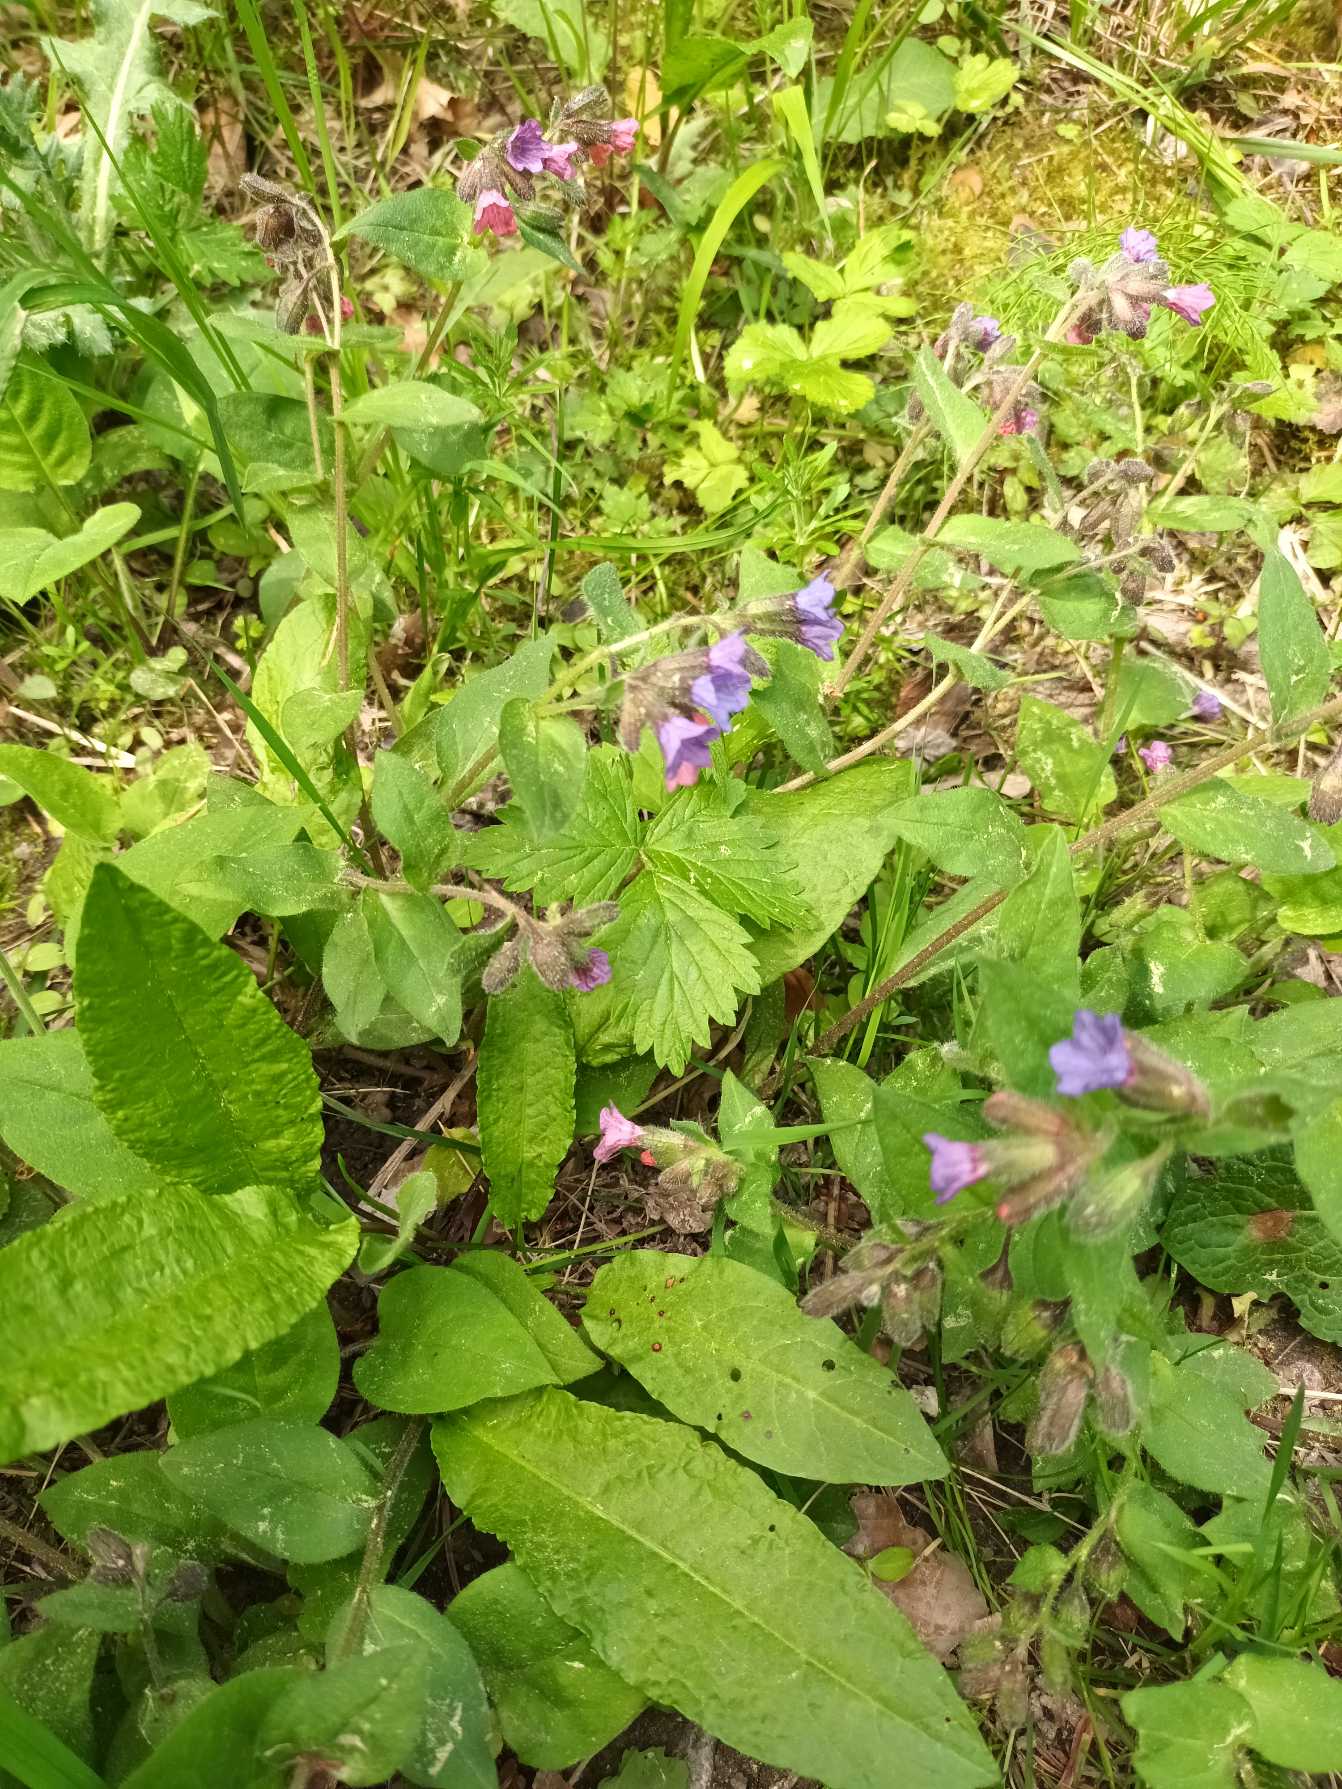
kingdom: Plantae
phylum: Tracheophyta
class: Magnoliopsida
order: Boraginales
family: Boraginaceae
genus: Pulmonaria
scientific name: Pulmonaria obscura
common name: Almindelig lungeurt
